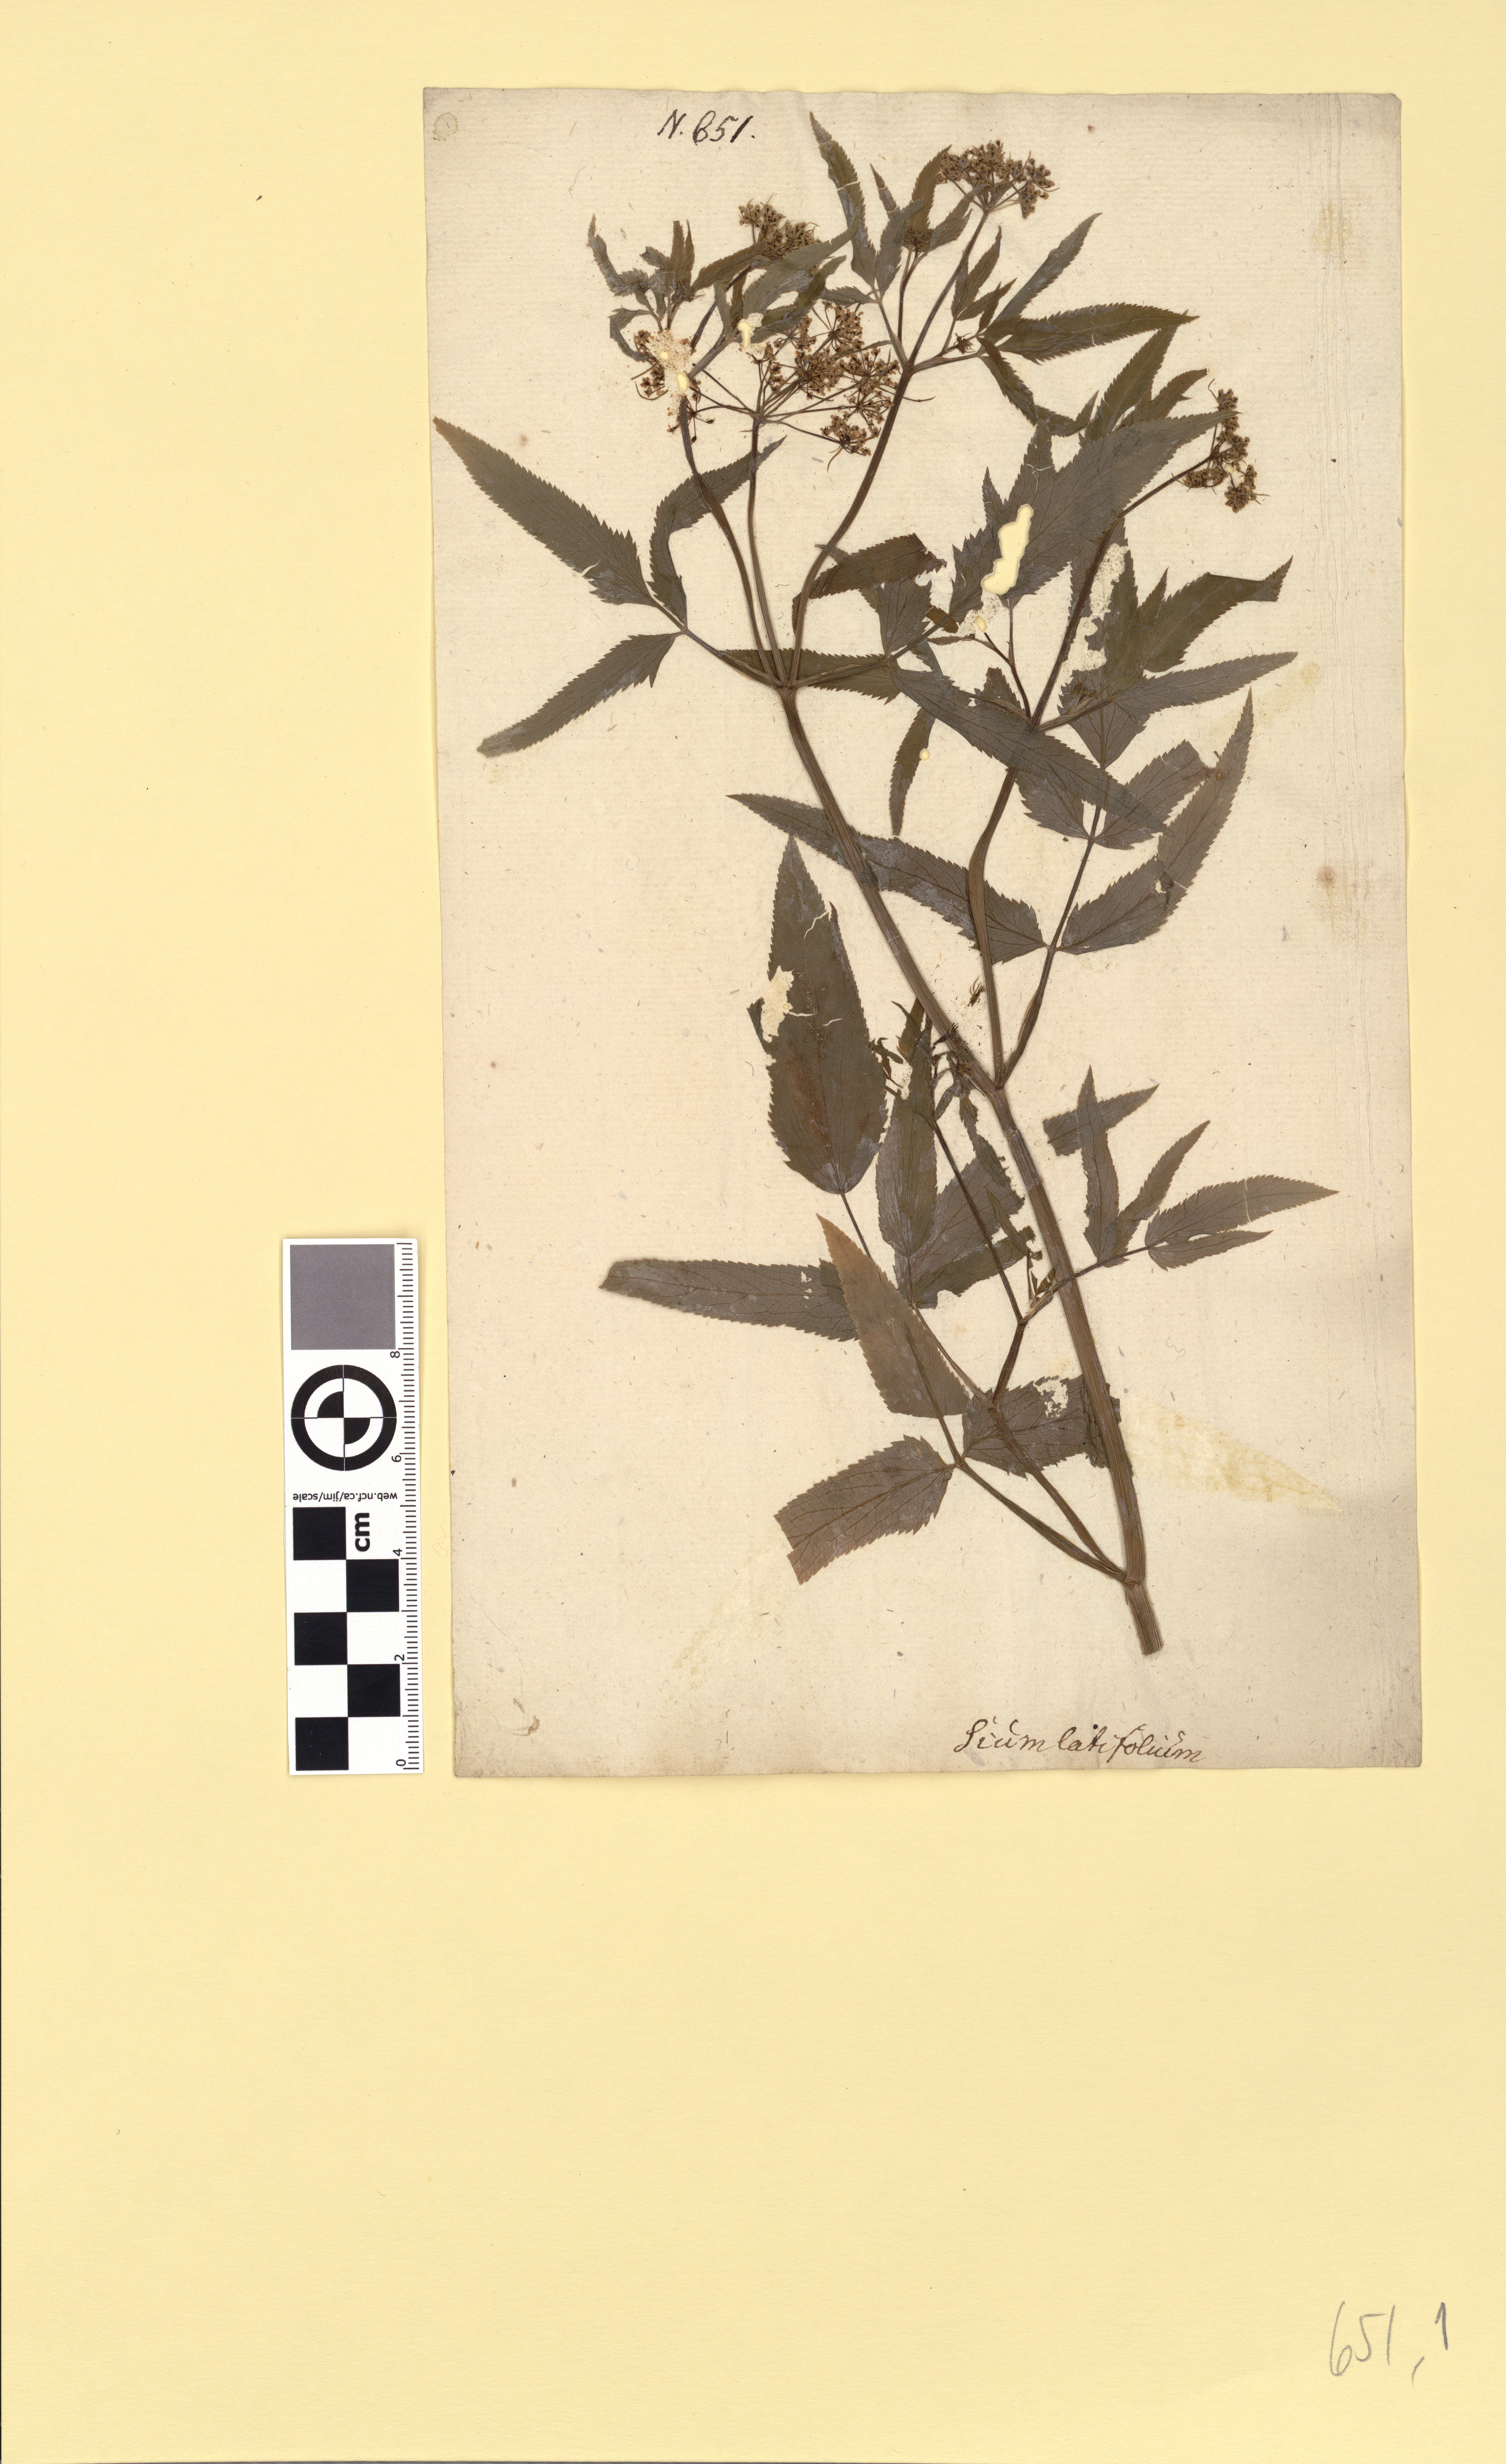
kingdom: Plantae
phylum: Tracheophyta
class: Magnoliopsida
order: Apiales
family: Apiaceae
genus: Sium
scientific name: Sium latifolium
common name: Greater water-parsnip
